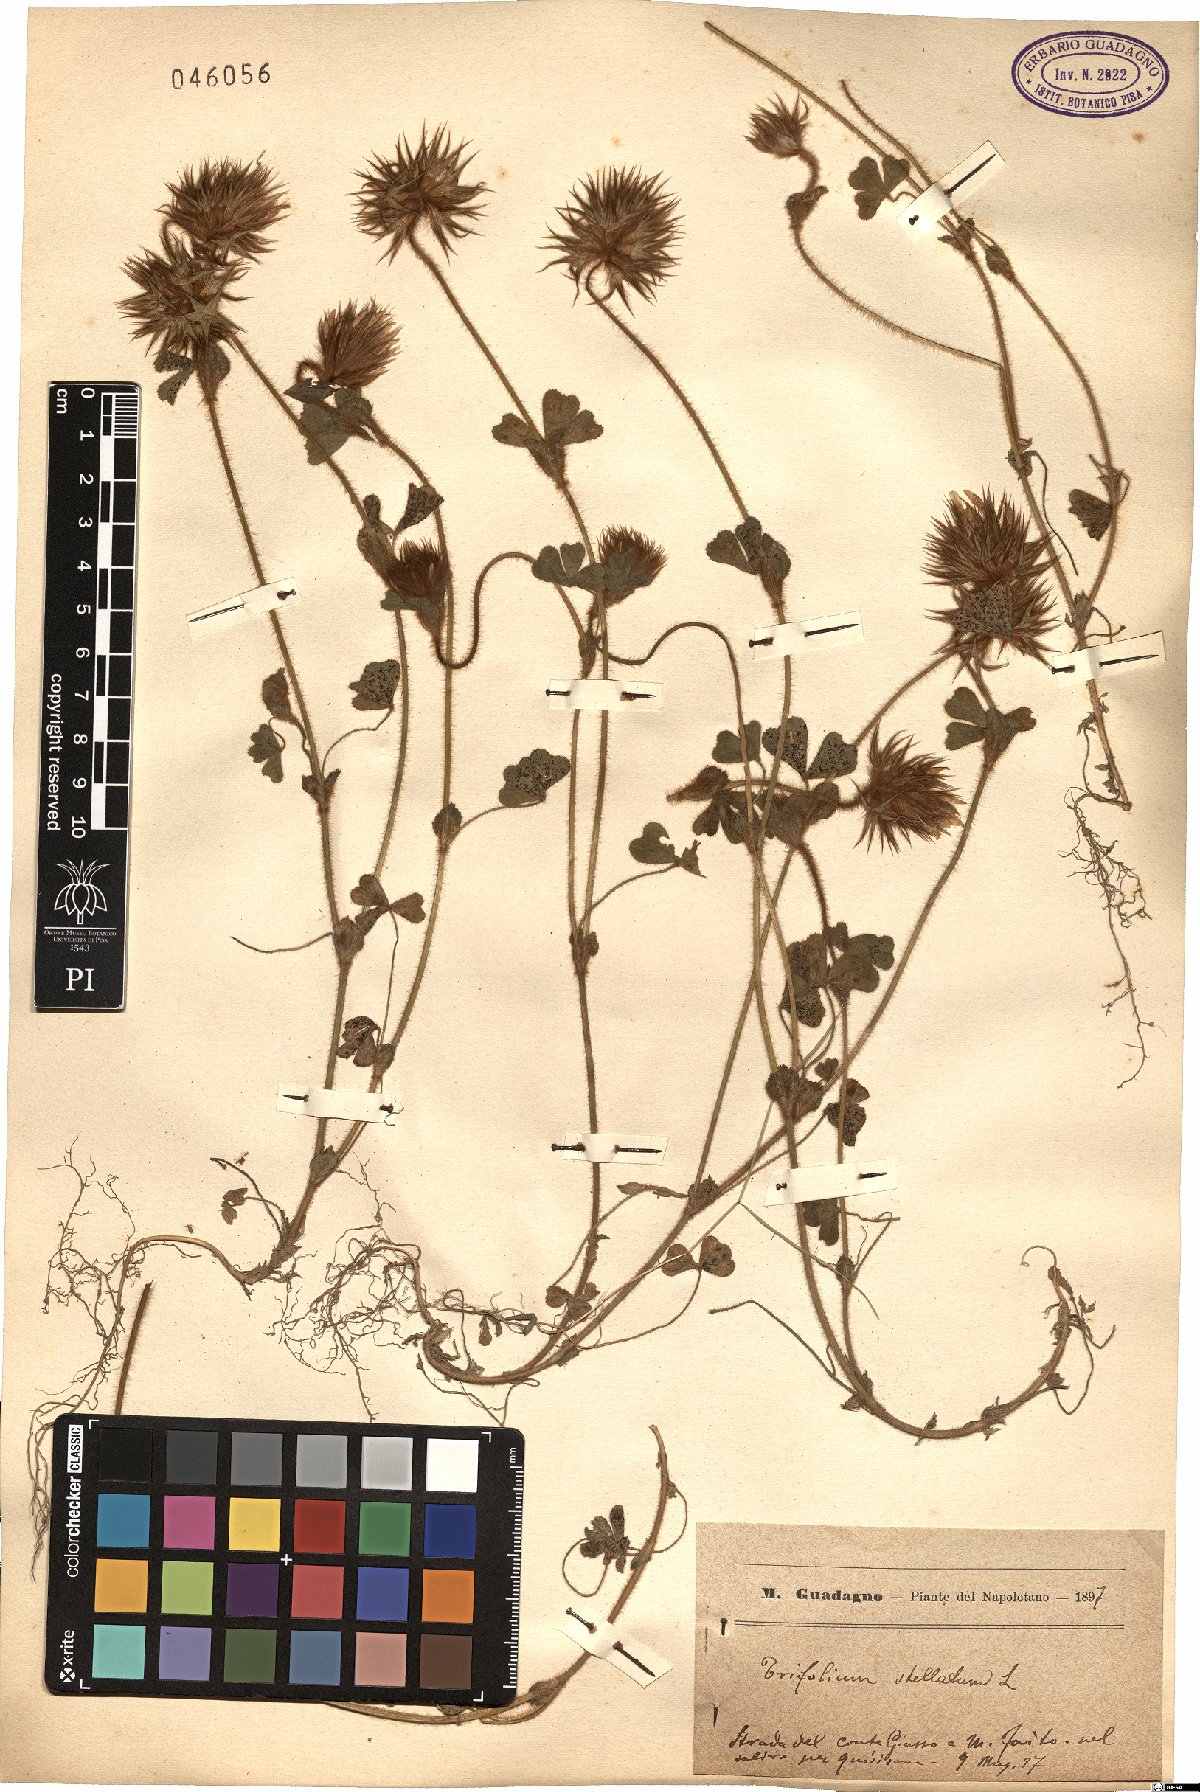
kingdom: Plantae
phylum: Tracheophyta
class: Magnoliopsida
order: Fabales
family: Fabaceae
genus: Trifolium
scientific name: Trifolium stellatum
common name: Starry clover
